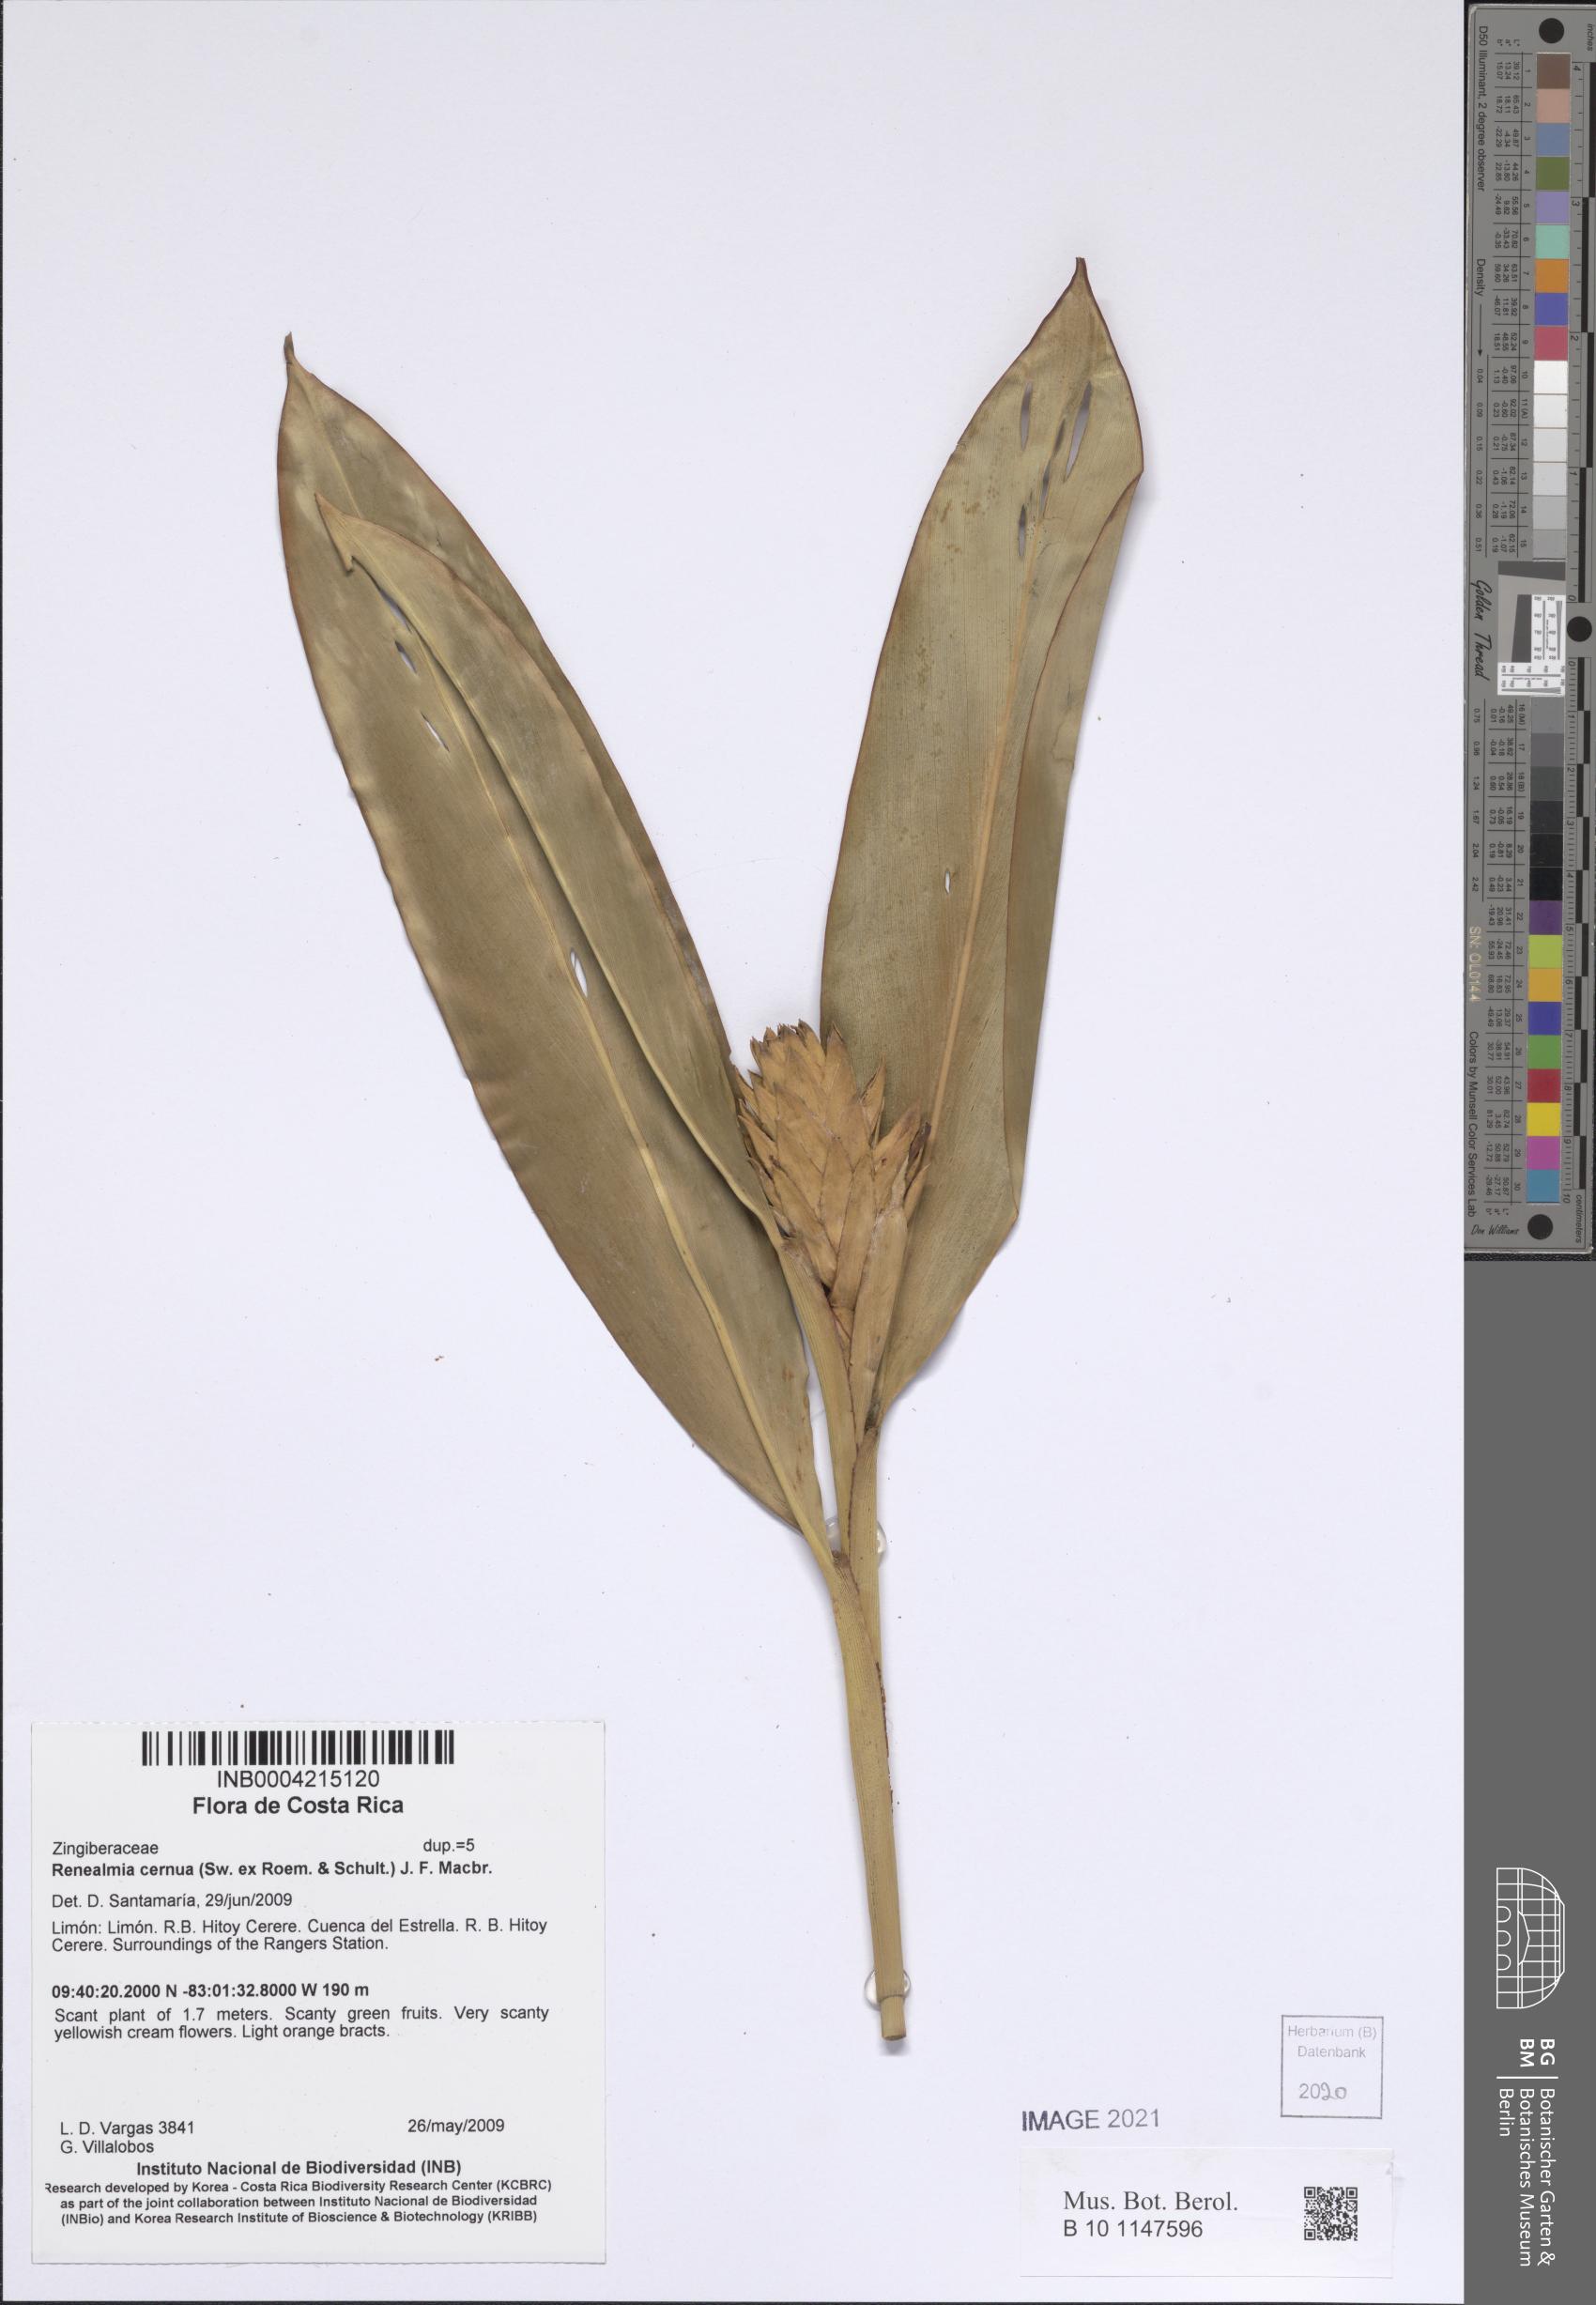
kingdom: Plantae
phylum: Tracheophyta
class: Liliopsida
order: Zingiberales
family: Zingiberaceae
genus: Renealmia
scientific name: Renealmia cernua
